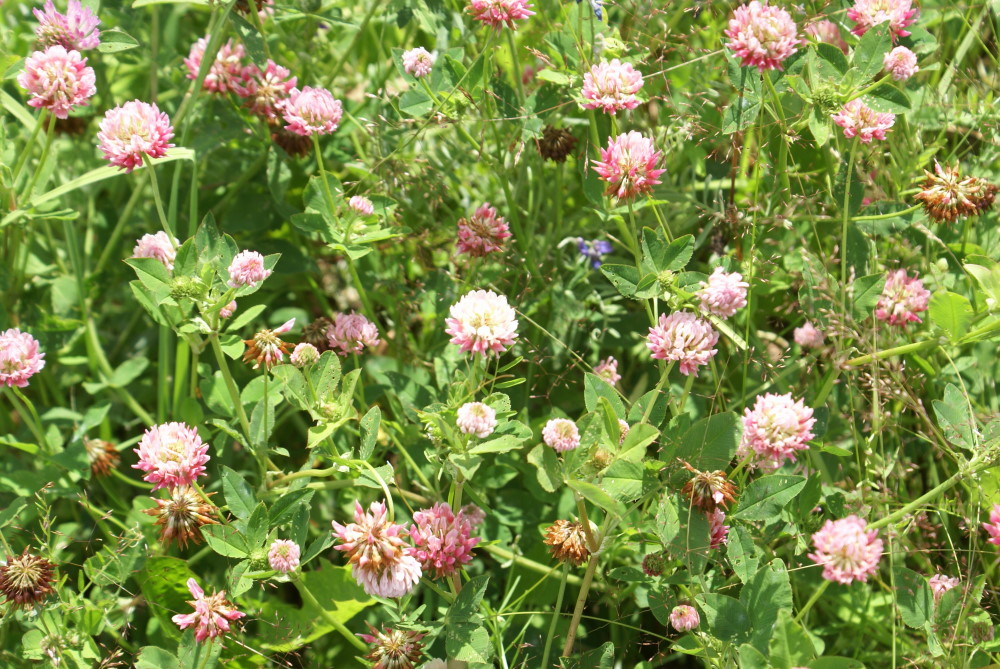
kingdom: Plantae
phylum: Tracheophyta
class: Magnoliopsida
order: Fabales
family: Fabaceae
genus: Trifolium
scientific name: Trifolium hybridum
